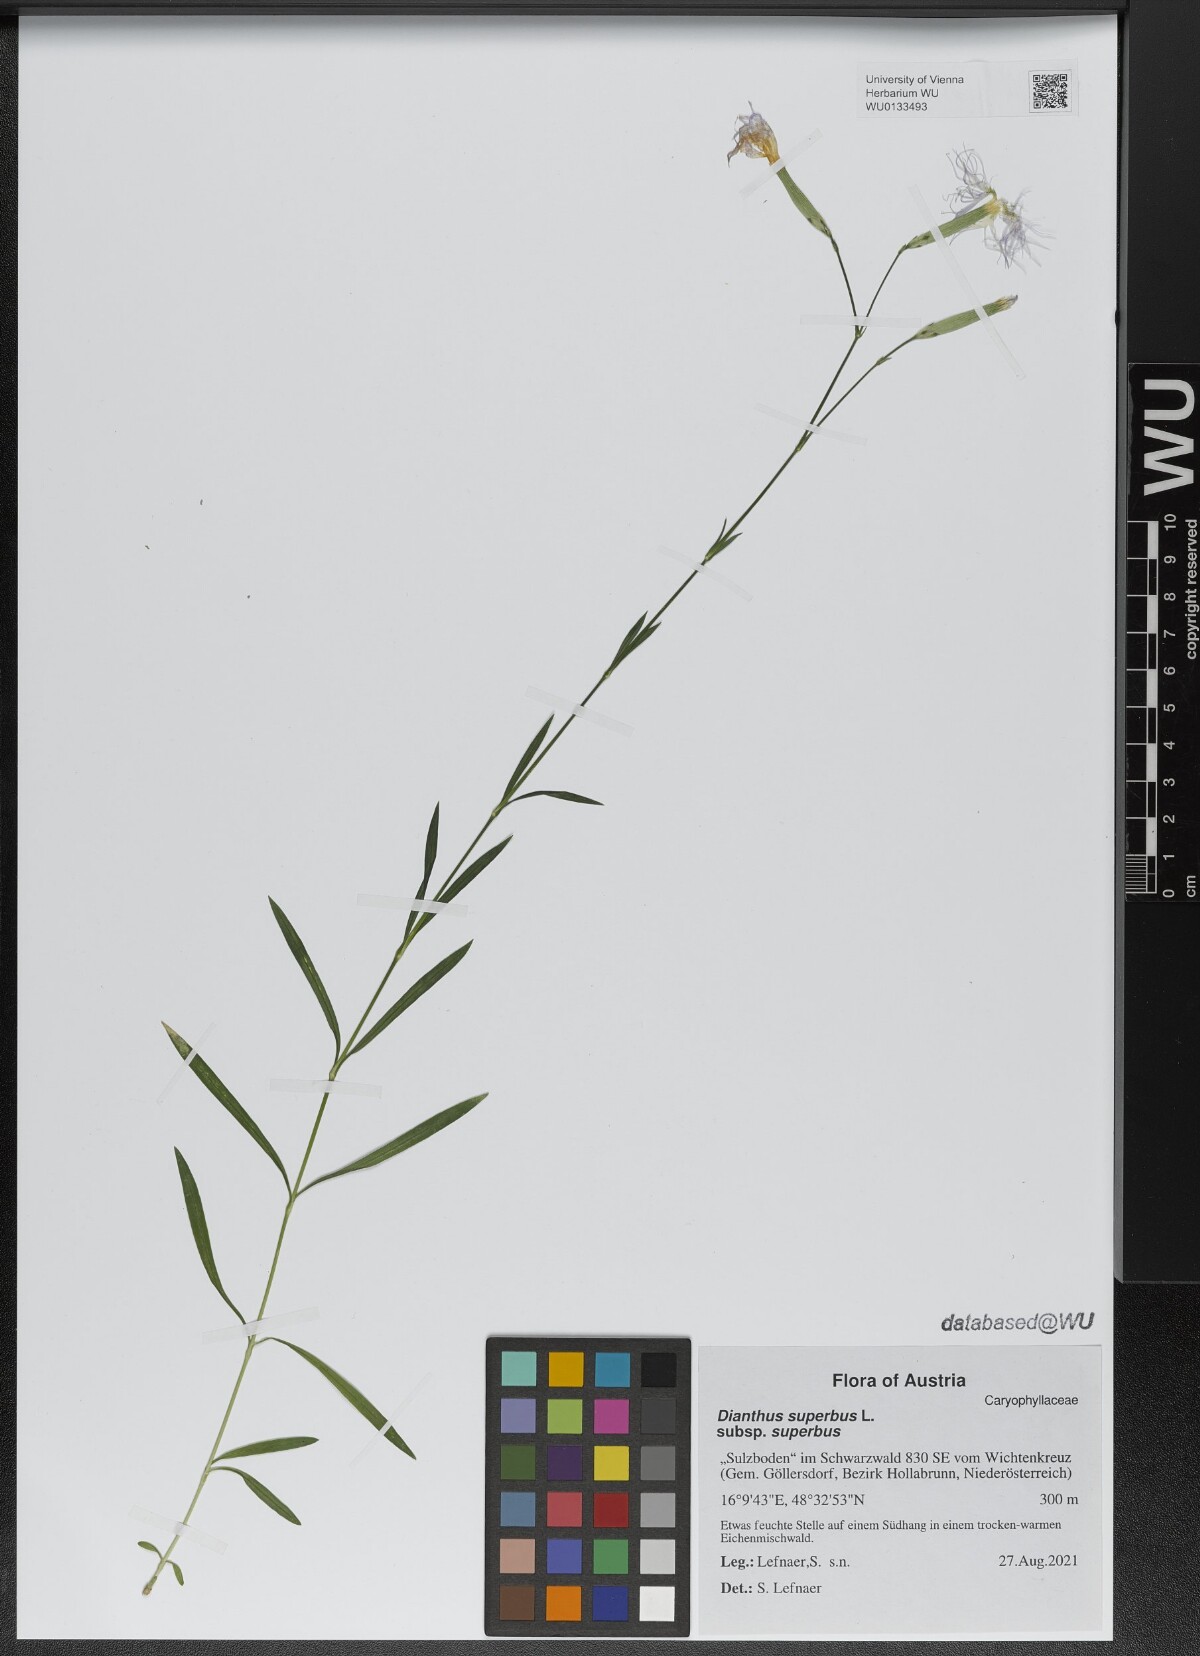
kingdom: Plantae
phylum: Tracheophyta
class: Magnoliopsida
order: Caryophyllales
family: Caryophyllaceae
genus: Dianthus
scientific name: Dianthus superbus
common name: Fringed pink
